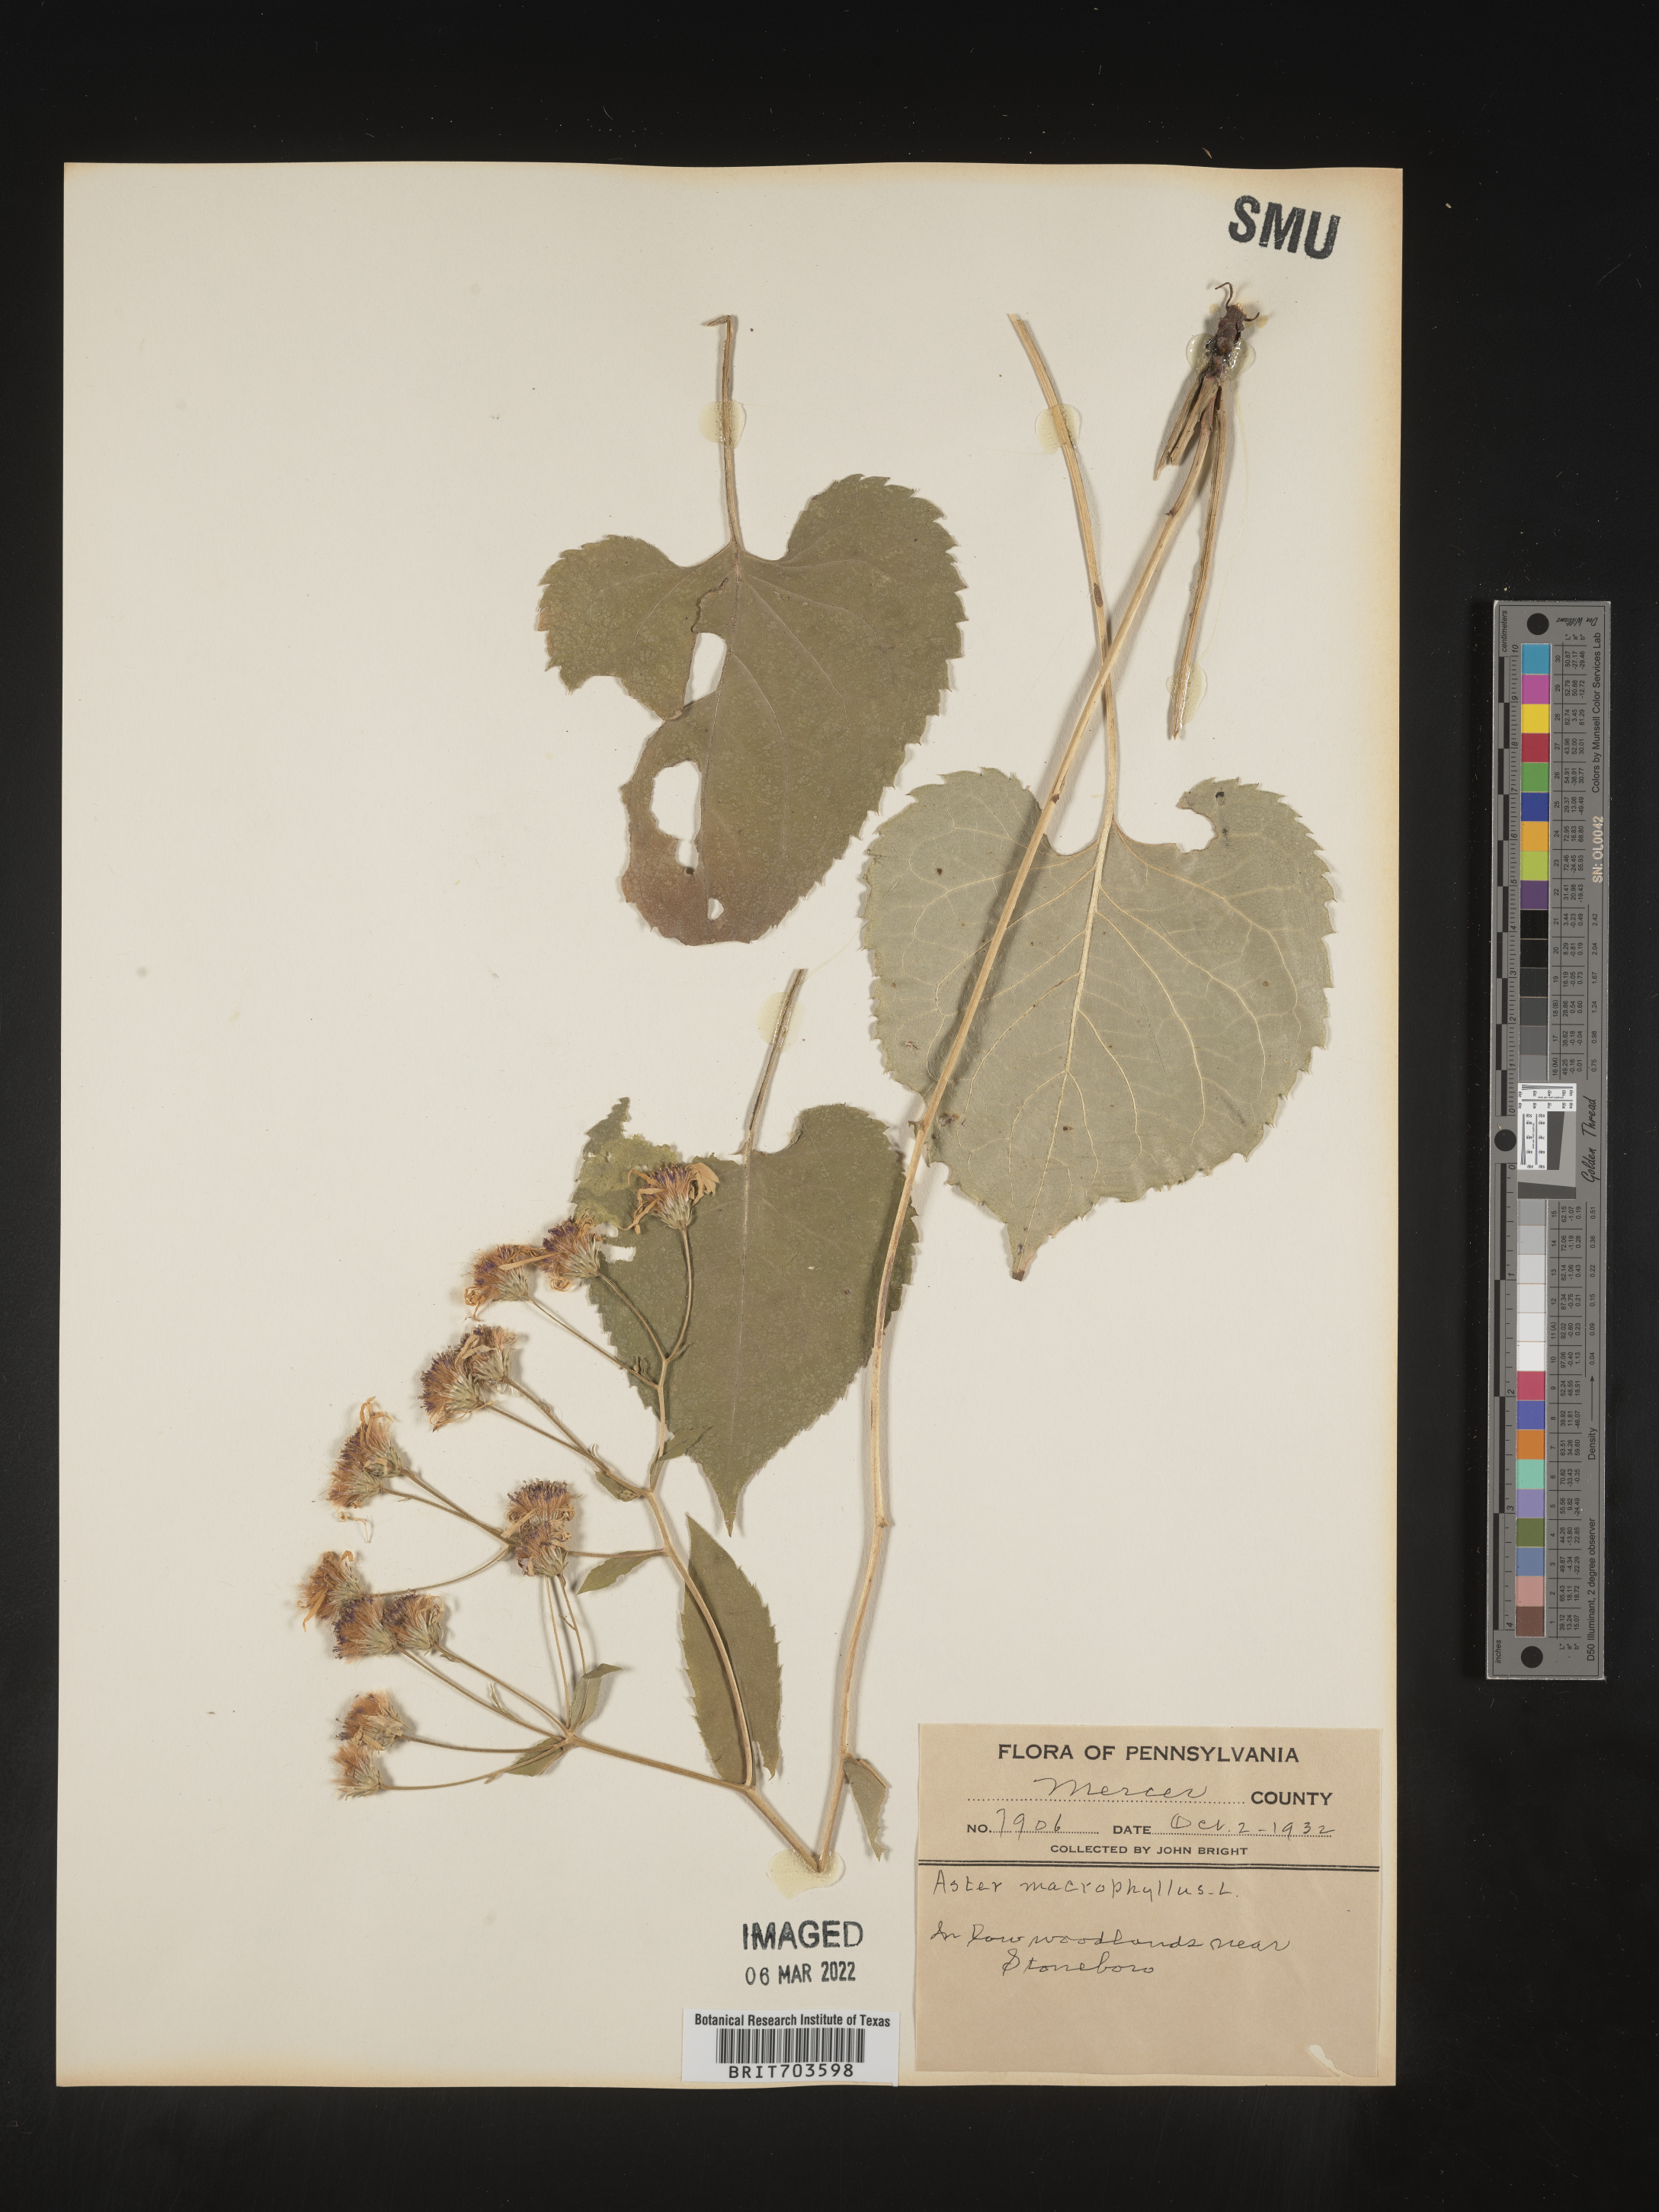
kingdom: Plantae
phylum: Tracheophyta
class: Magnoliopsida
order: Asterales
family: Asteraceae
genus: Eurybia
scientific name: Eurybia macrophylla
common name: Big-leaved aster
